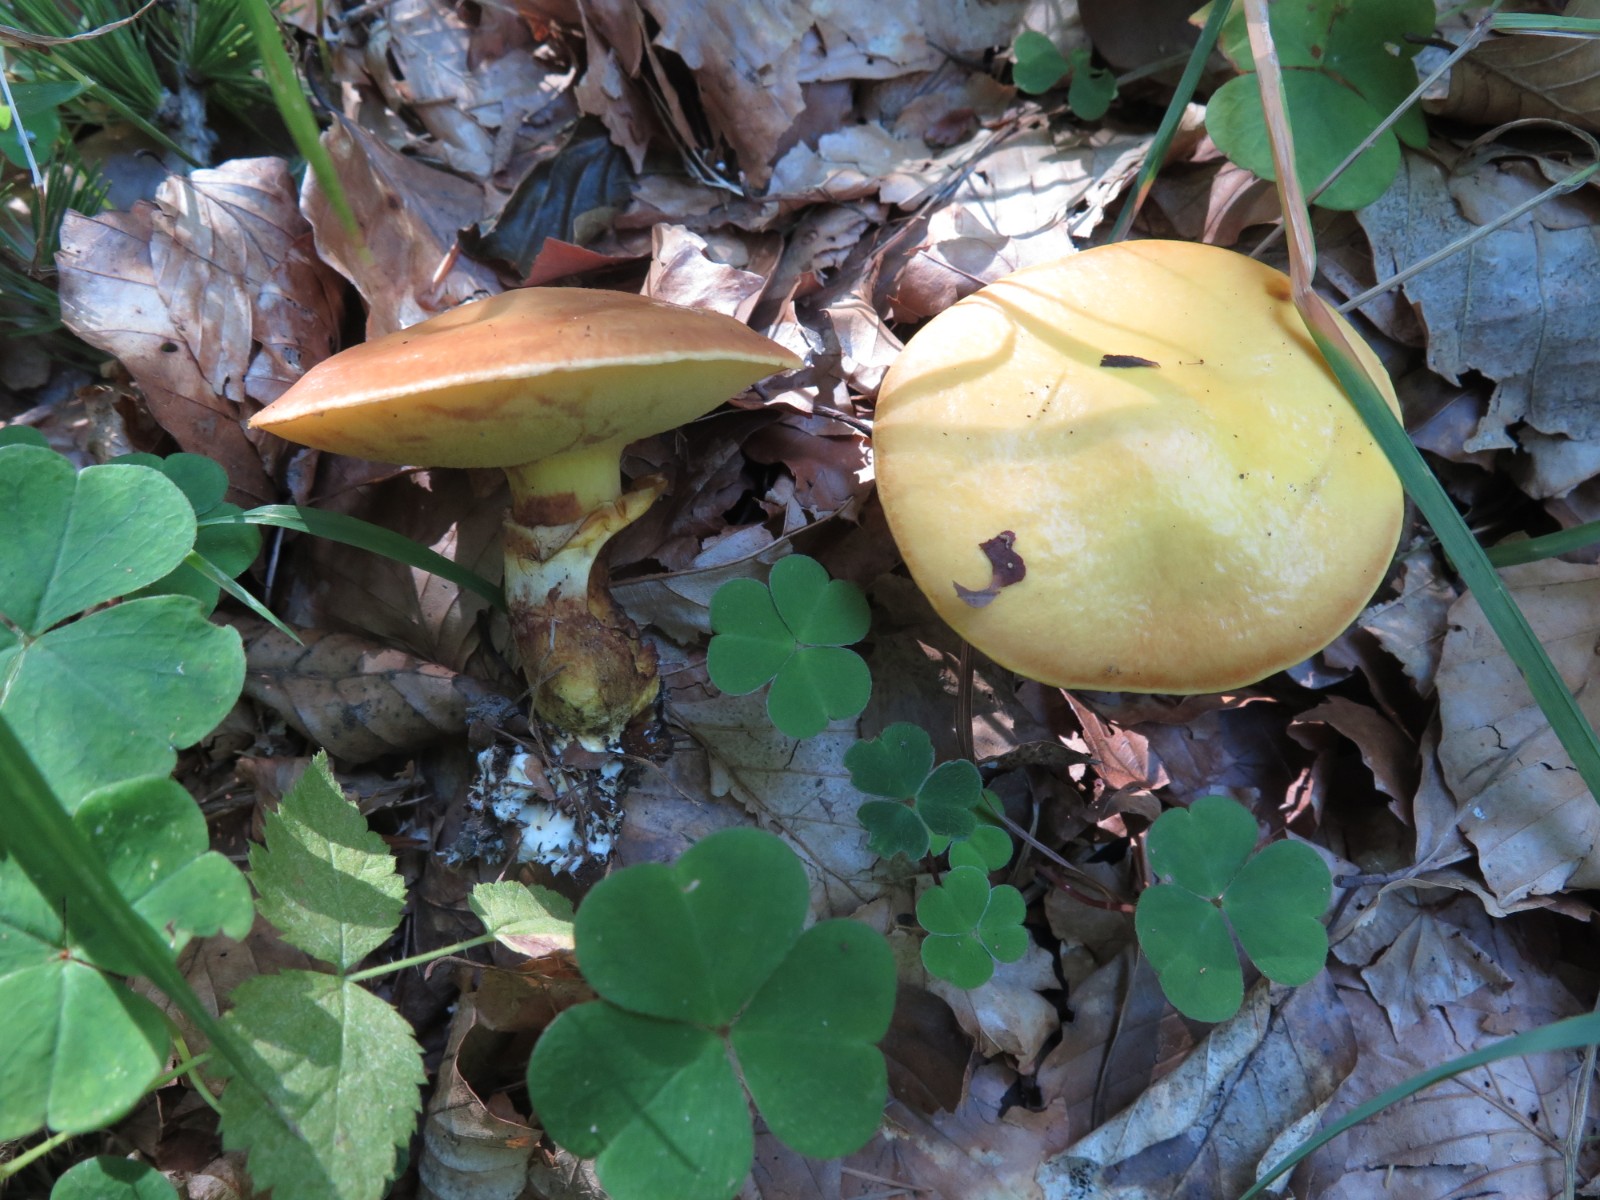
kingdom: Fungi
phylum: Basidiomycota
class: Agaricomycetes
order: Boletales
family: Suillaceae
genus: Suillus
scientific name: Suillus grevillei
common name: lærke-slimrørhat
